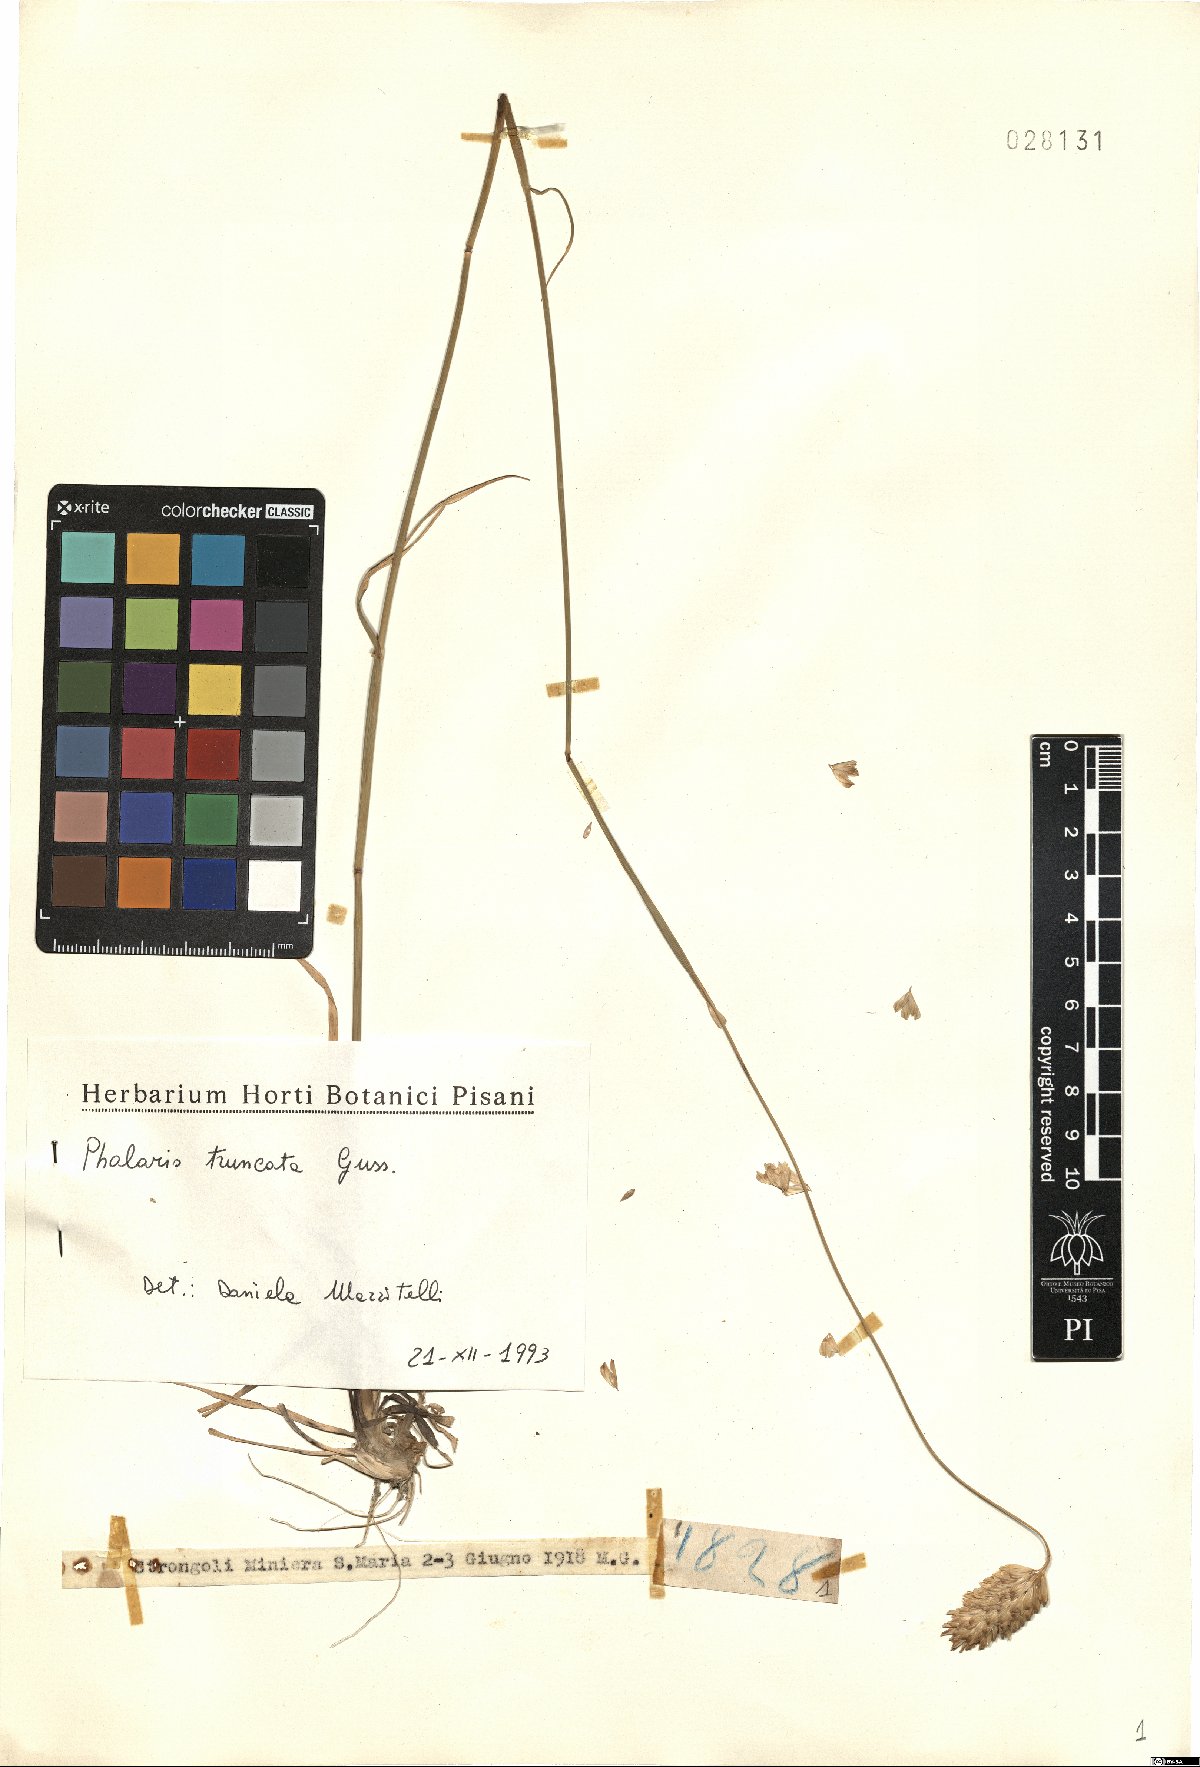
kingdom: Plantae
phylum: Tracheophyta
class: Liliopsida
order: Poales
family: Poaceae
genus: Phalaris
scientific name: Phalaris truncata
